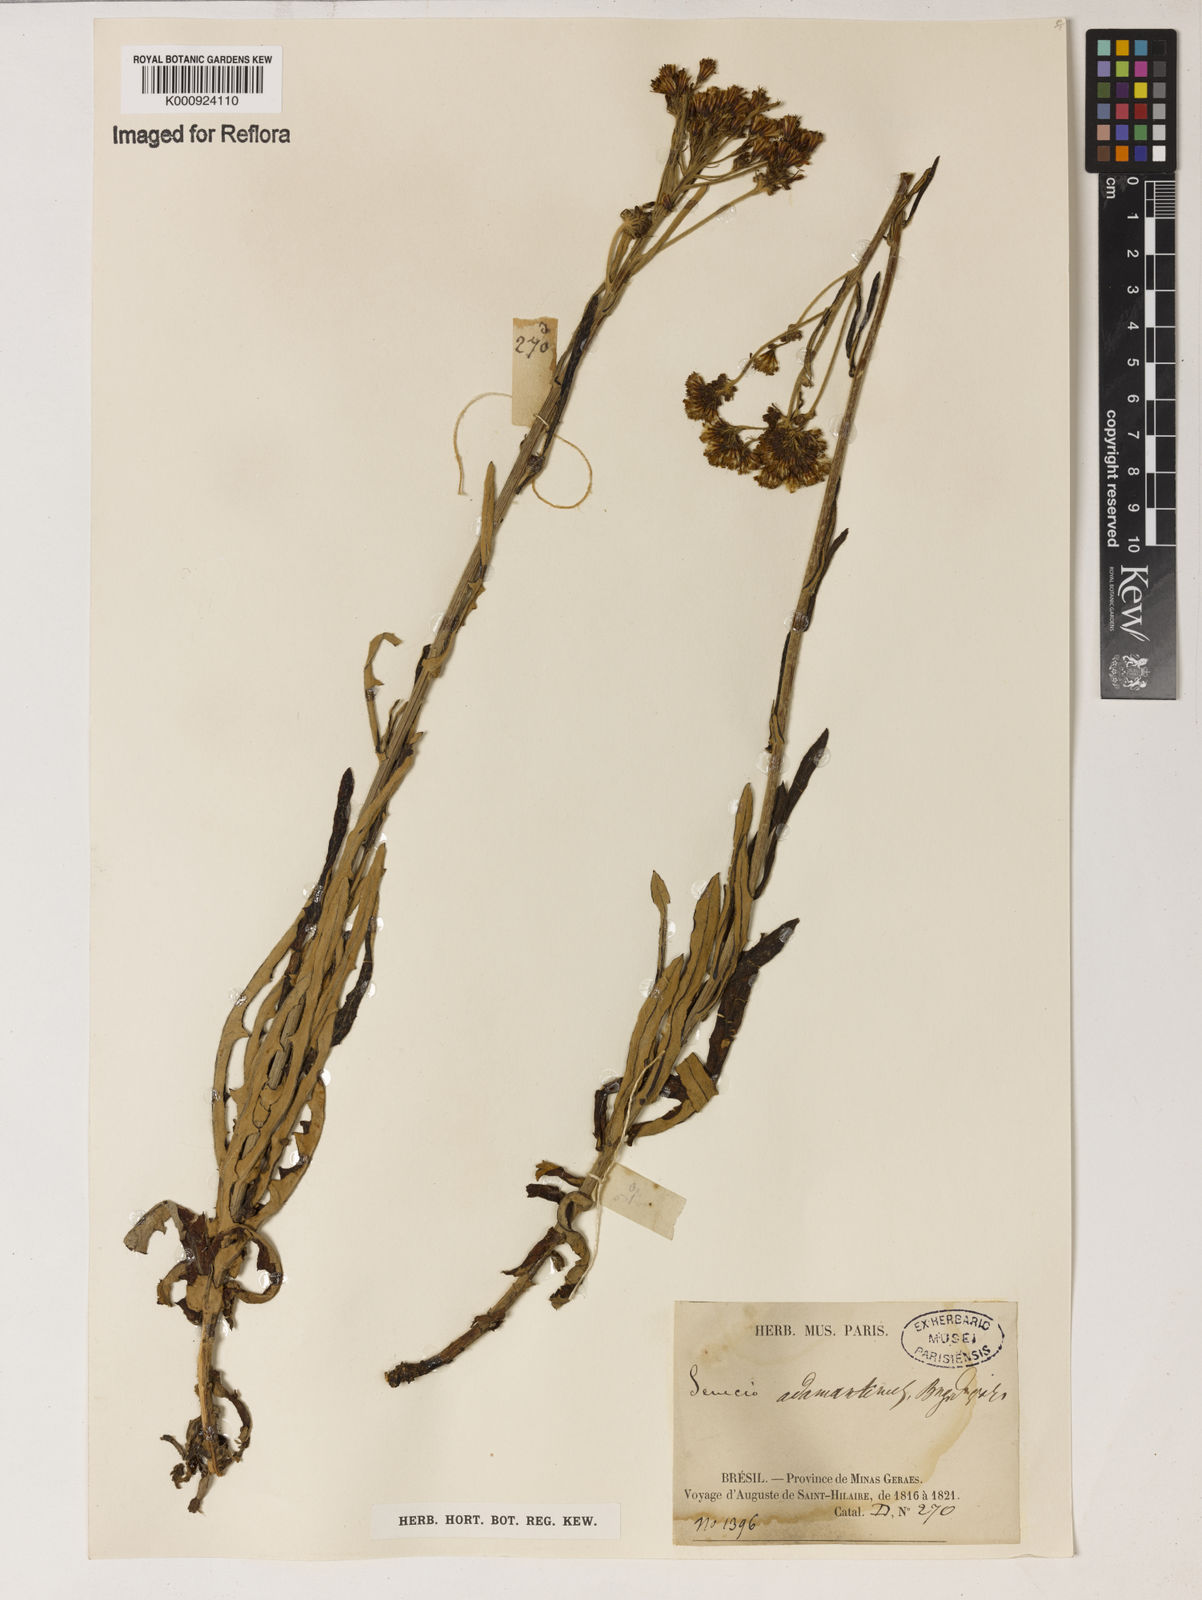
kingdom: Plantae
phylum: Tracheophyta
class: Magnoliopsida
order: Asterales
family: Asteraceae
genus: Senecio
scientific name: Senecio
